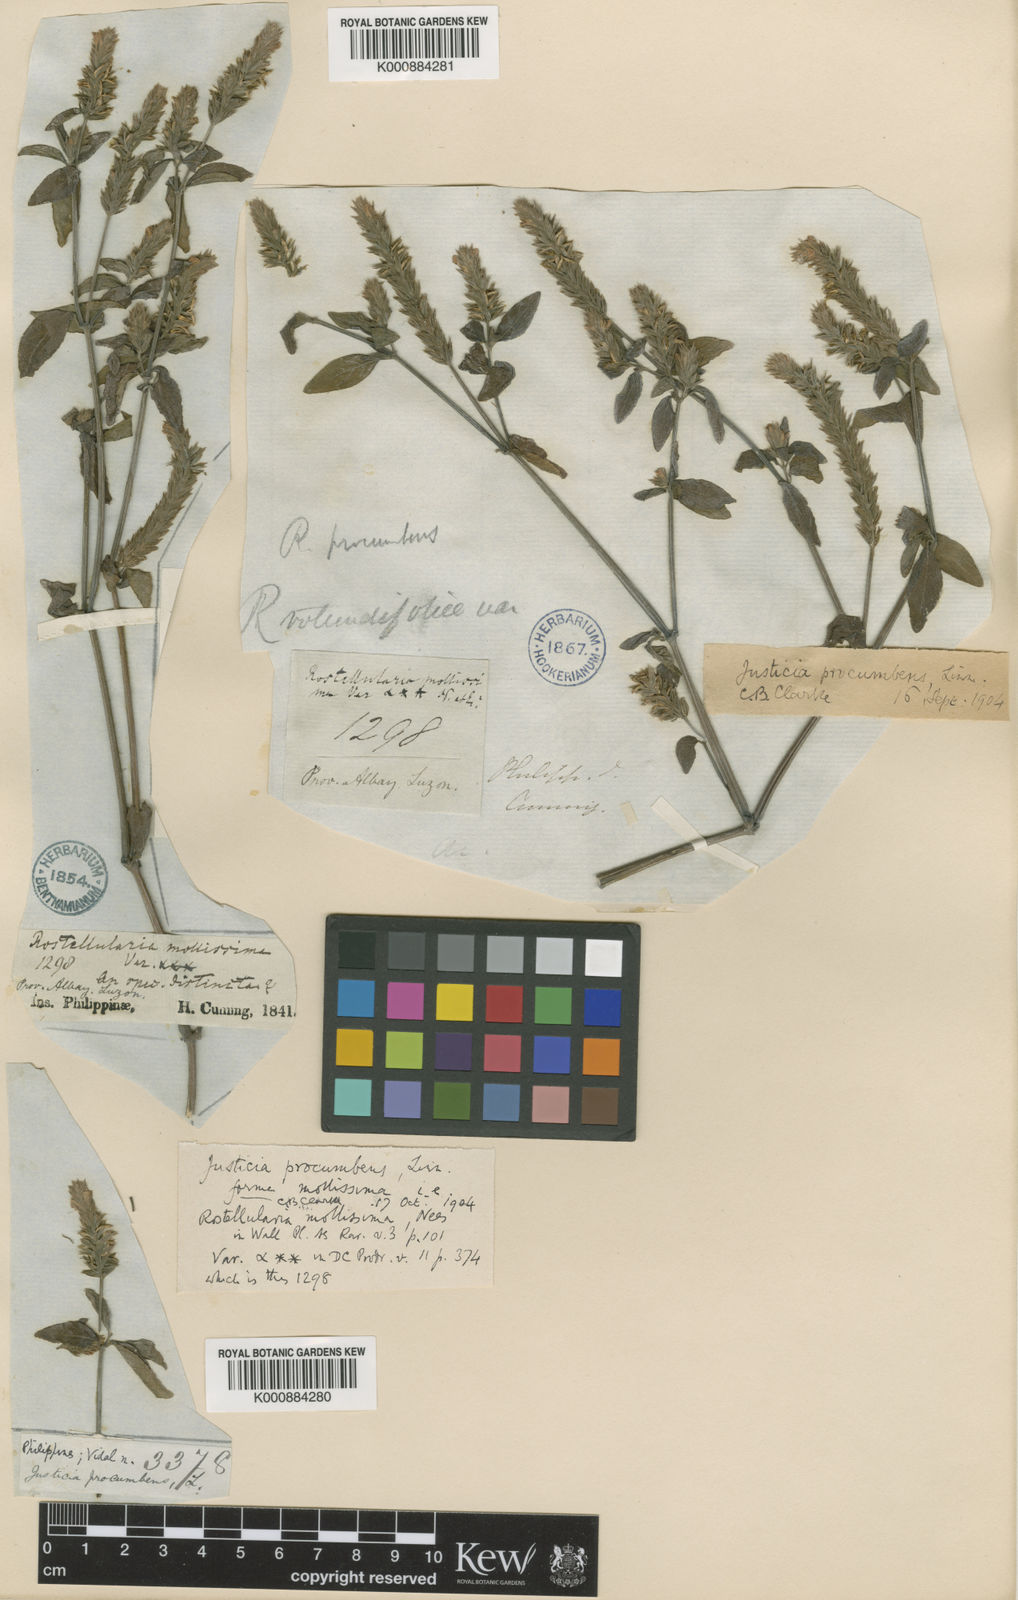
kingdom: Plantae
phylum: Tracheophyta
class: Magnoliopsida
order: Lamiales
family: Acanthaceae
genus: Rostellularia
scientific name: Rostellularia procumbens
